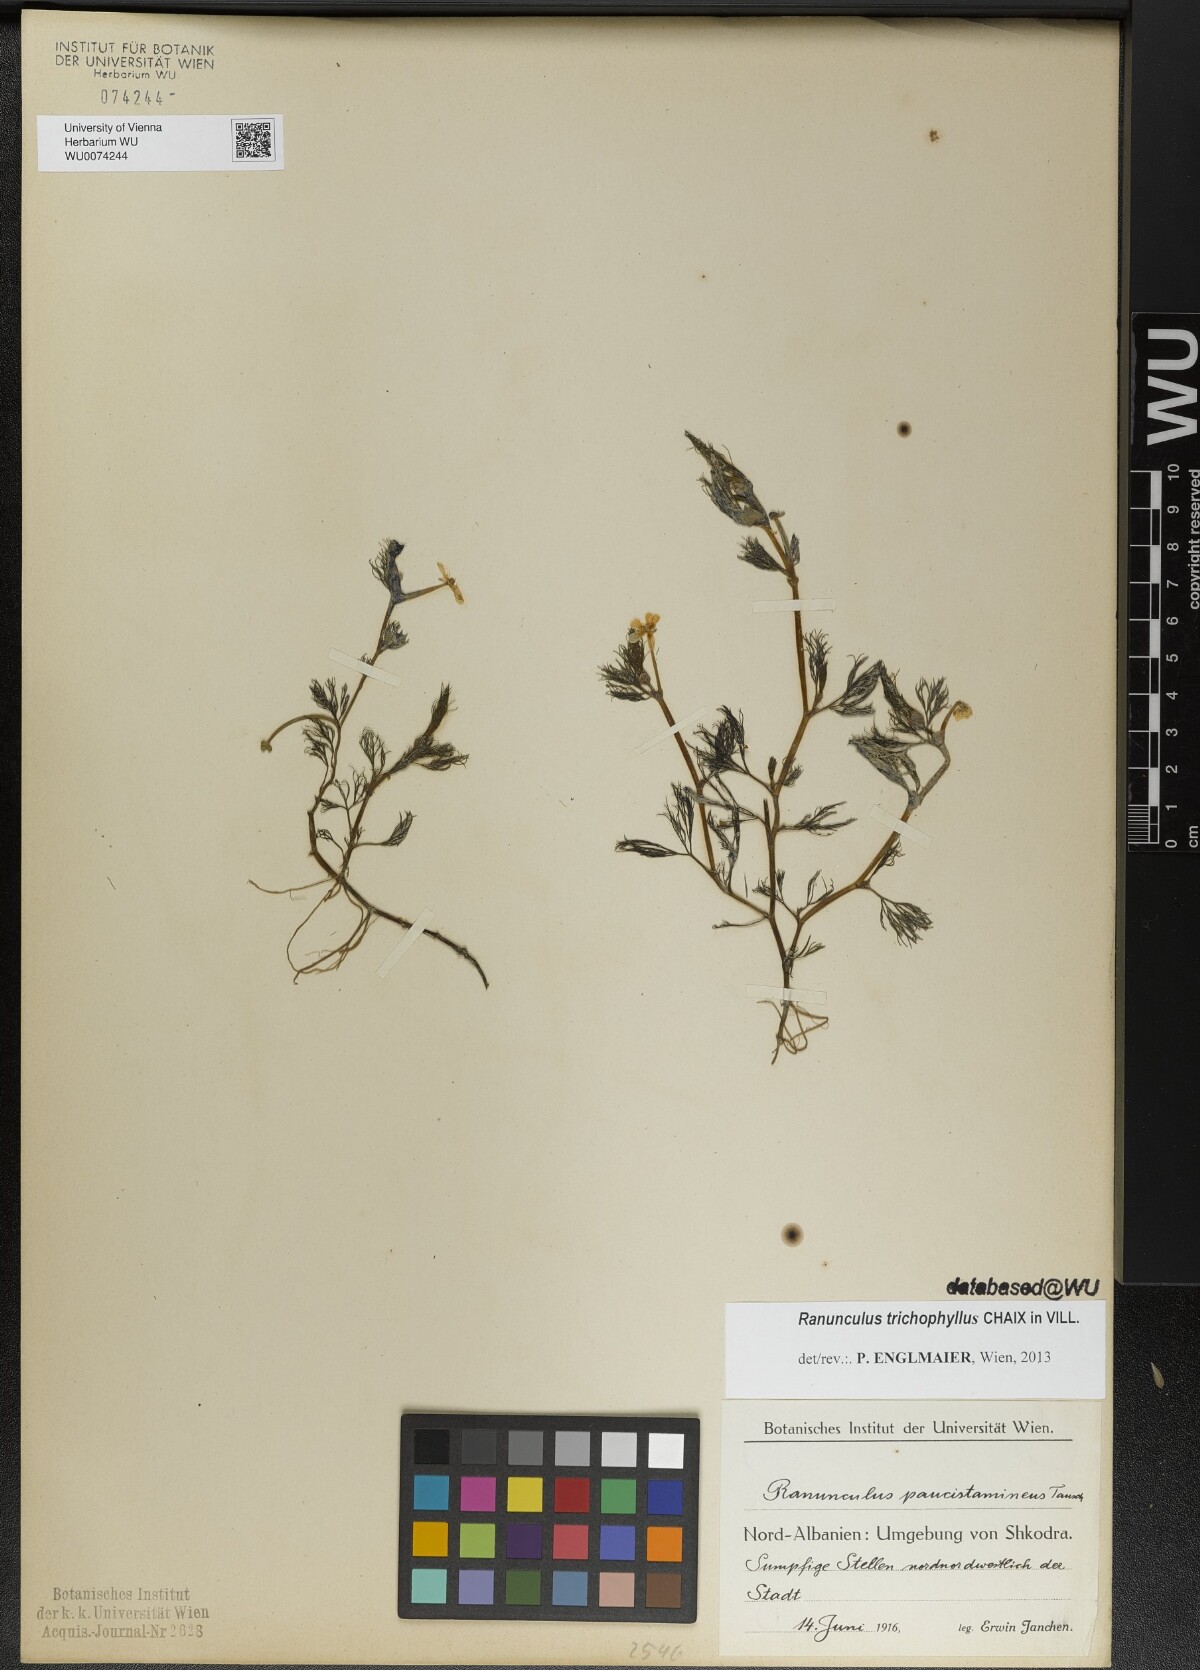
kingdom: Plantae
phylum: Tracheophyta
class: Magnoliopsida
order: Ranunculales
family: Ranunculaceae
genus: Ranunculus
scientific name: Ranunculus trichophyllus
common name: Thread-leaved water-crowfoot
